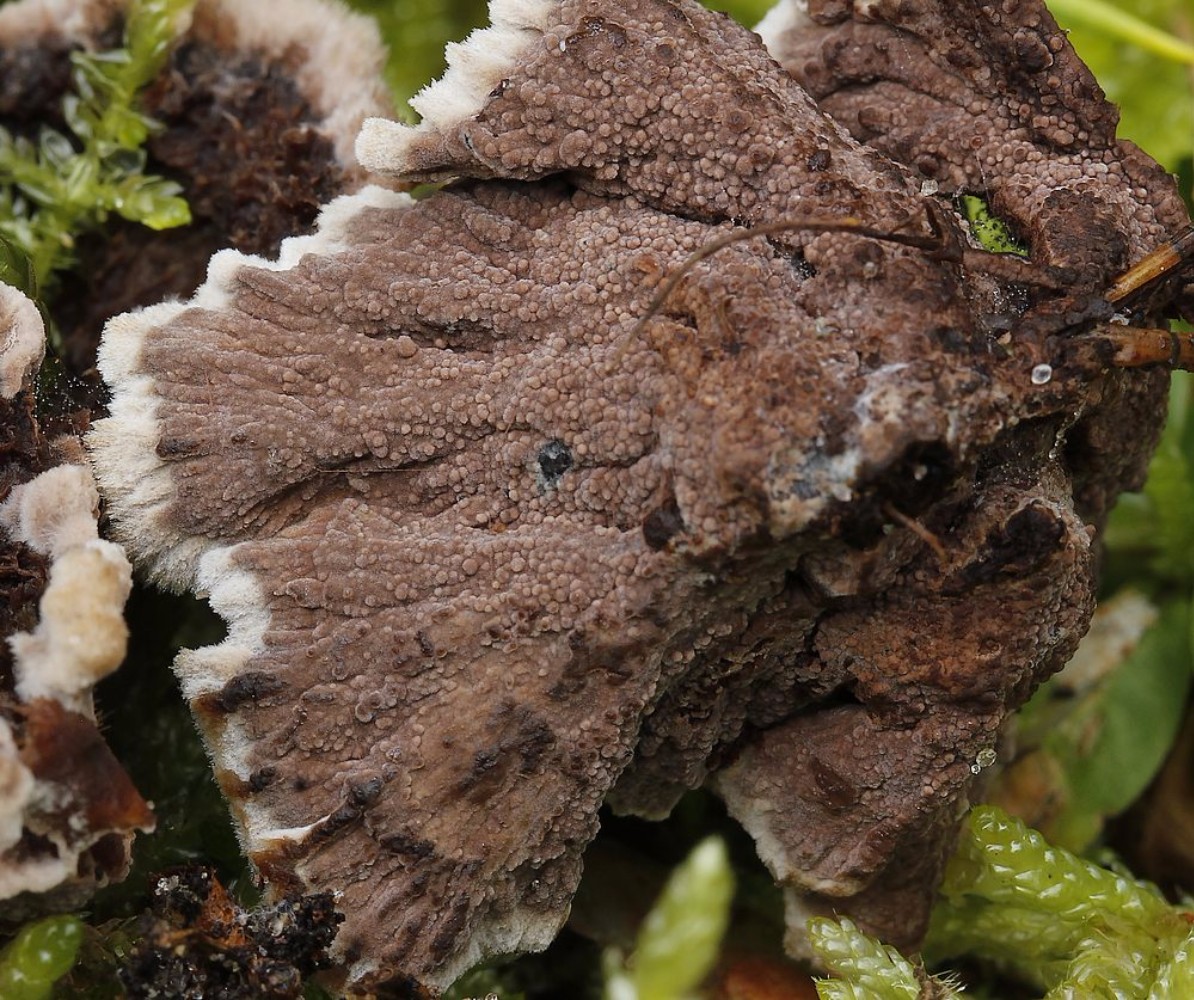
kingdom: Fungi
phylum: Basidiomycota
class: Agaricomycetes
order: Thelephorales
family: Thelephoraceae
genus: Thelephora
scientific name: Thelephora terrestris
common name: fliget frynsesvamp
